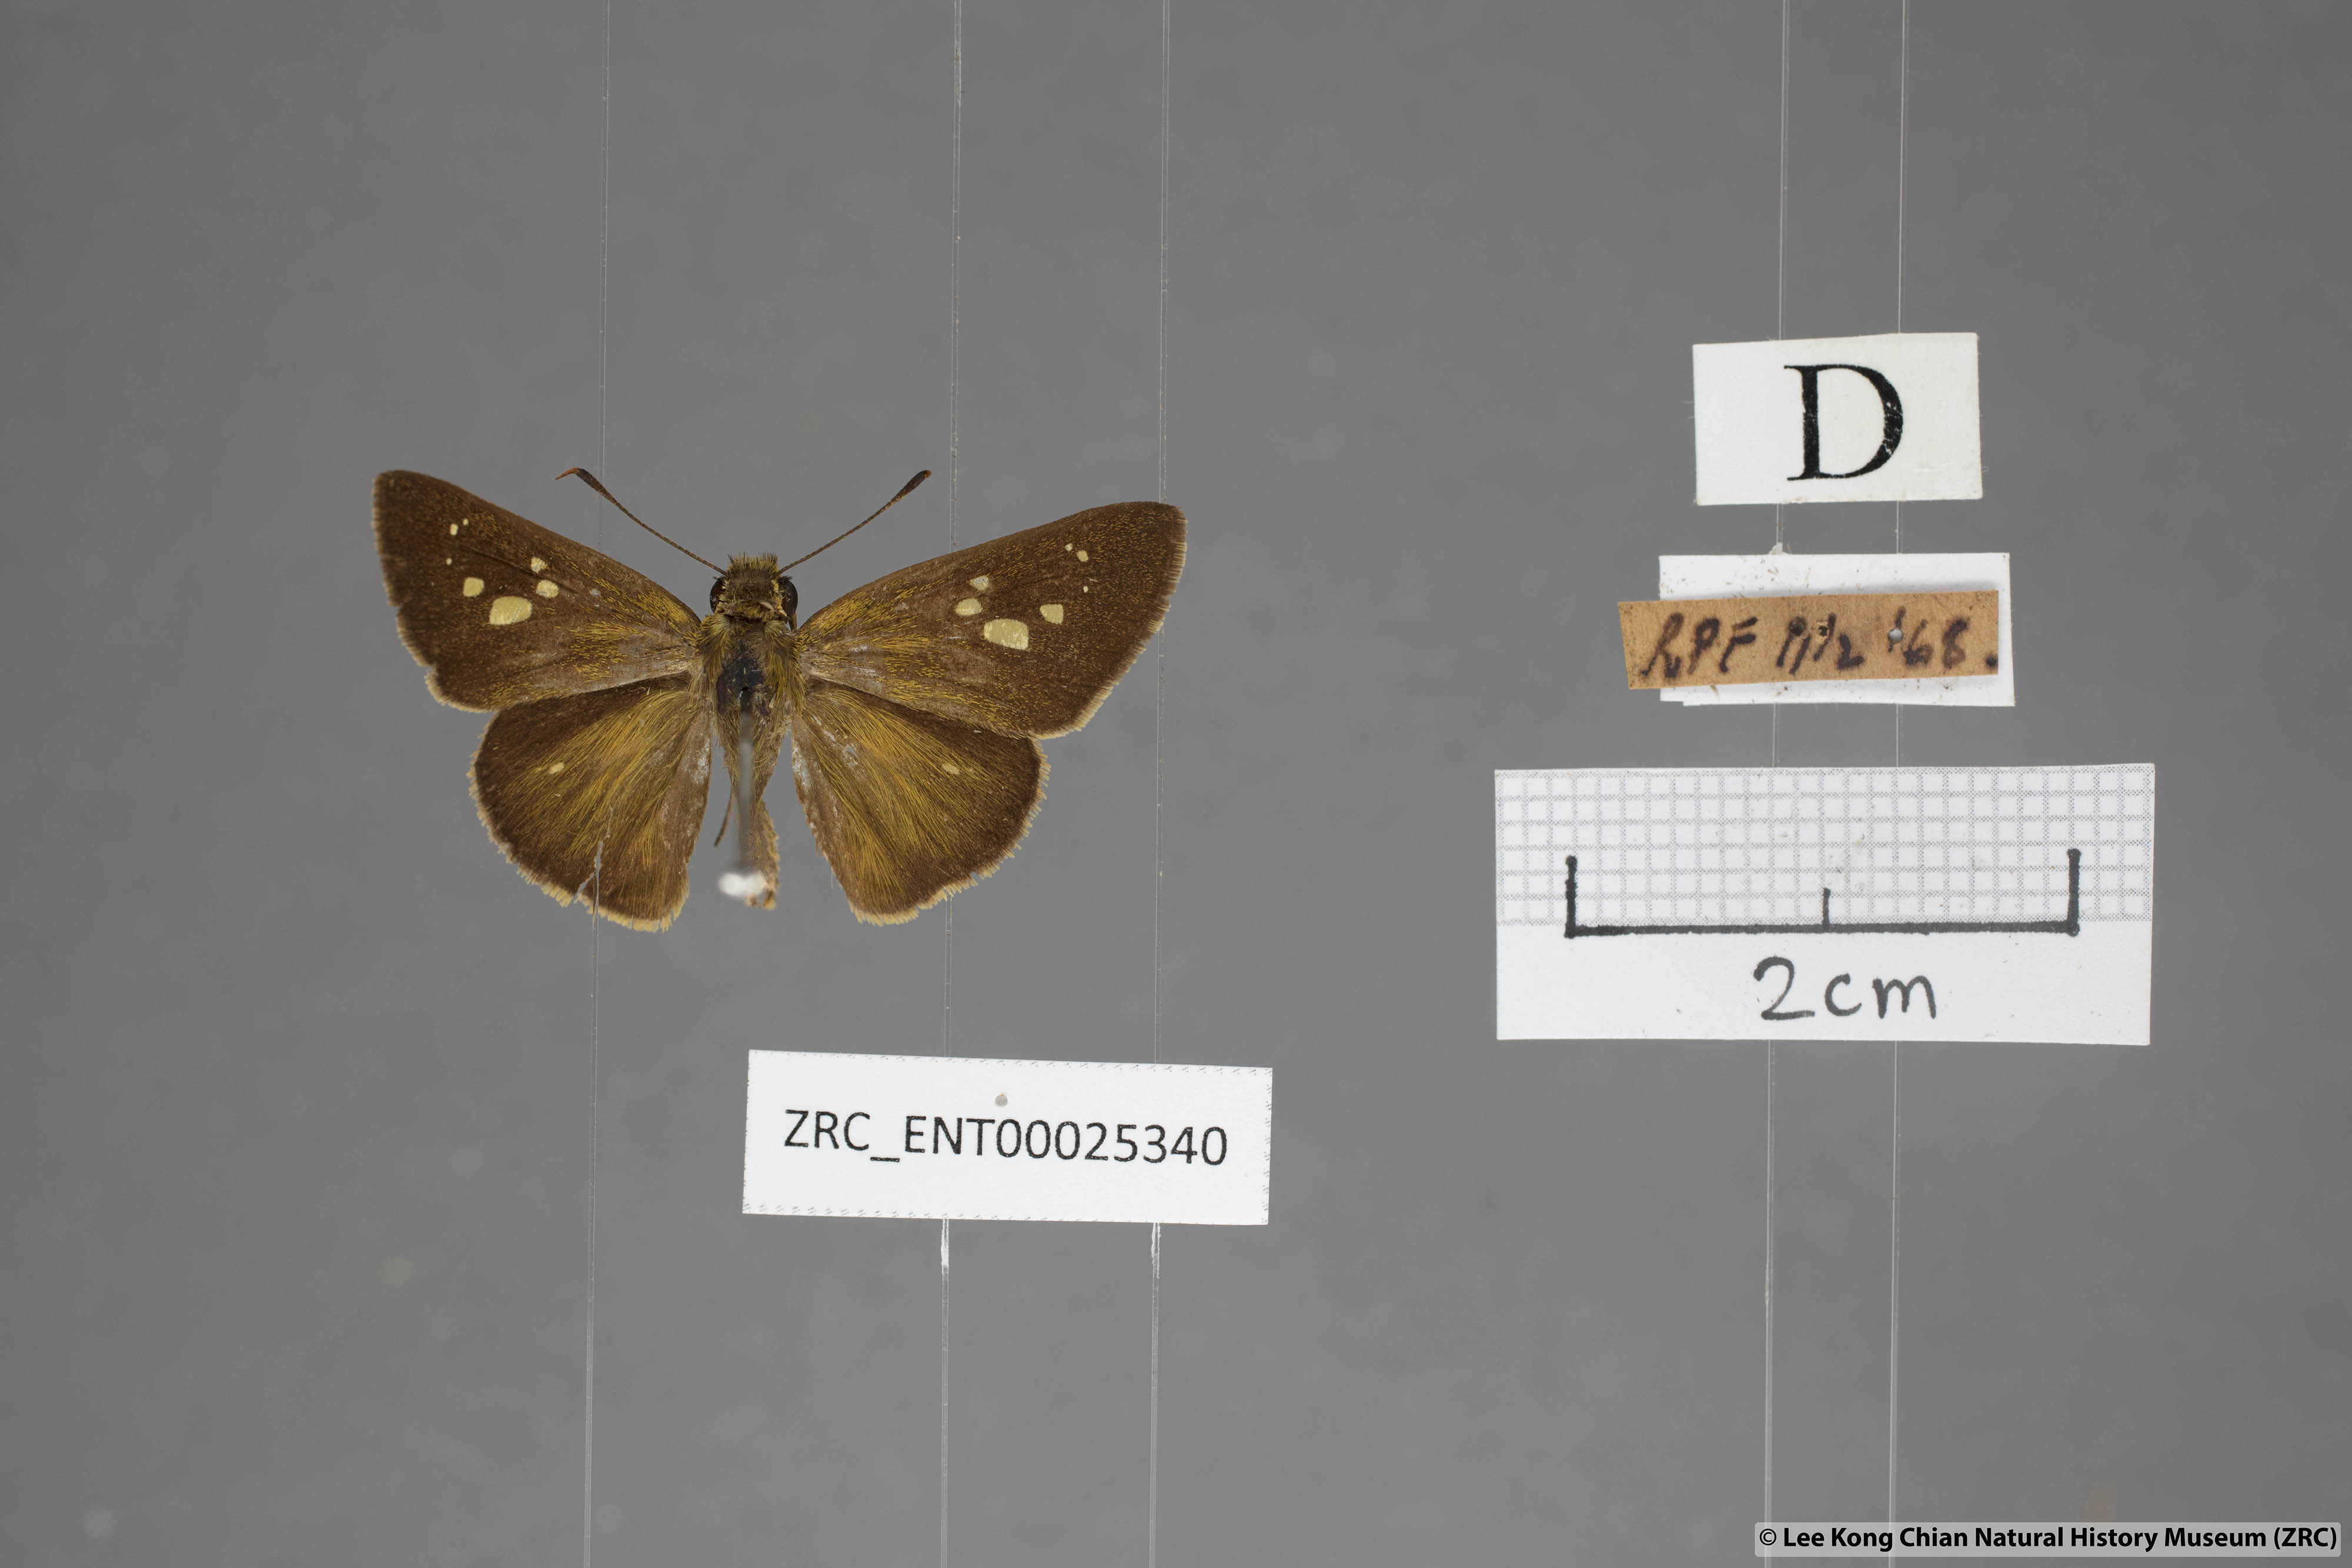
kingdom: Animalia
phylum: Arthropoda
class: Insecta
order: Lepidoptera
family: Hesperiidae
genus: Polytremis
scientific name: Polytremis lubricans
